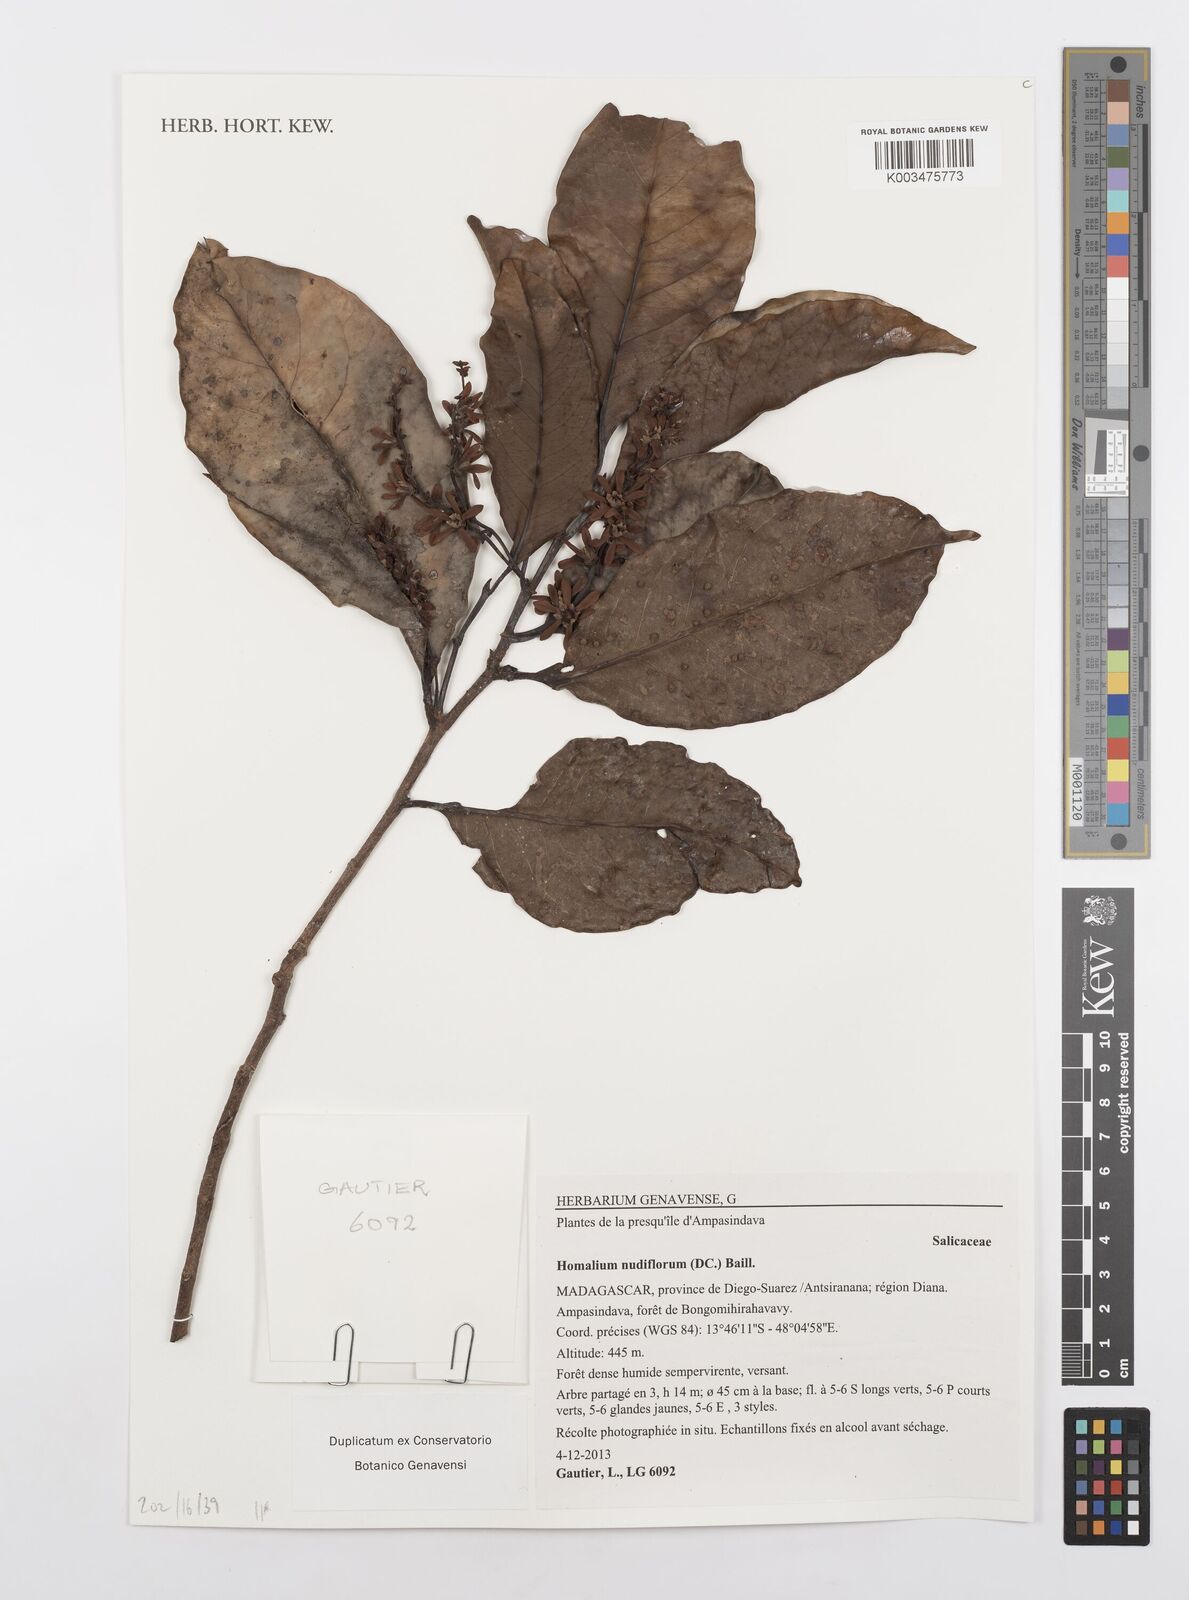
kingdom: Plantae
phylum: Tracheophyta
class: Magnoliopsida
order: Malpighiales
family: Salicaceae
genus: Homalium
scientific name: Homalium nudiflorum
